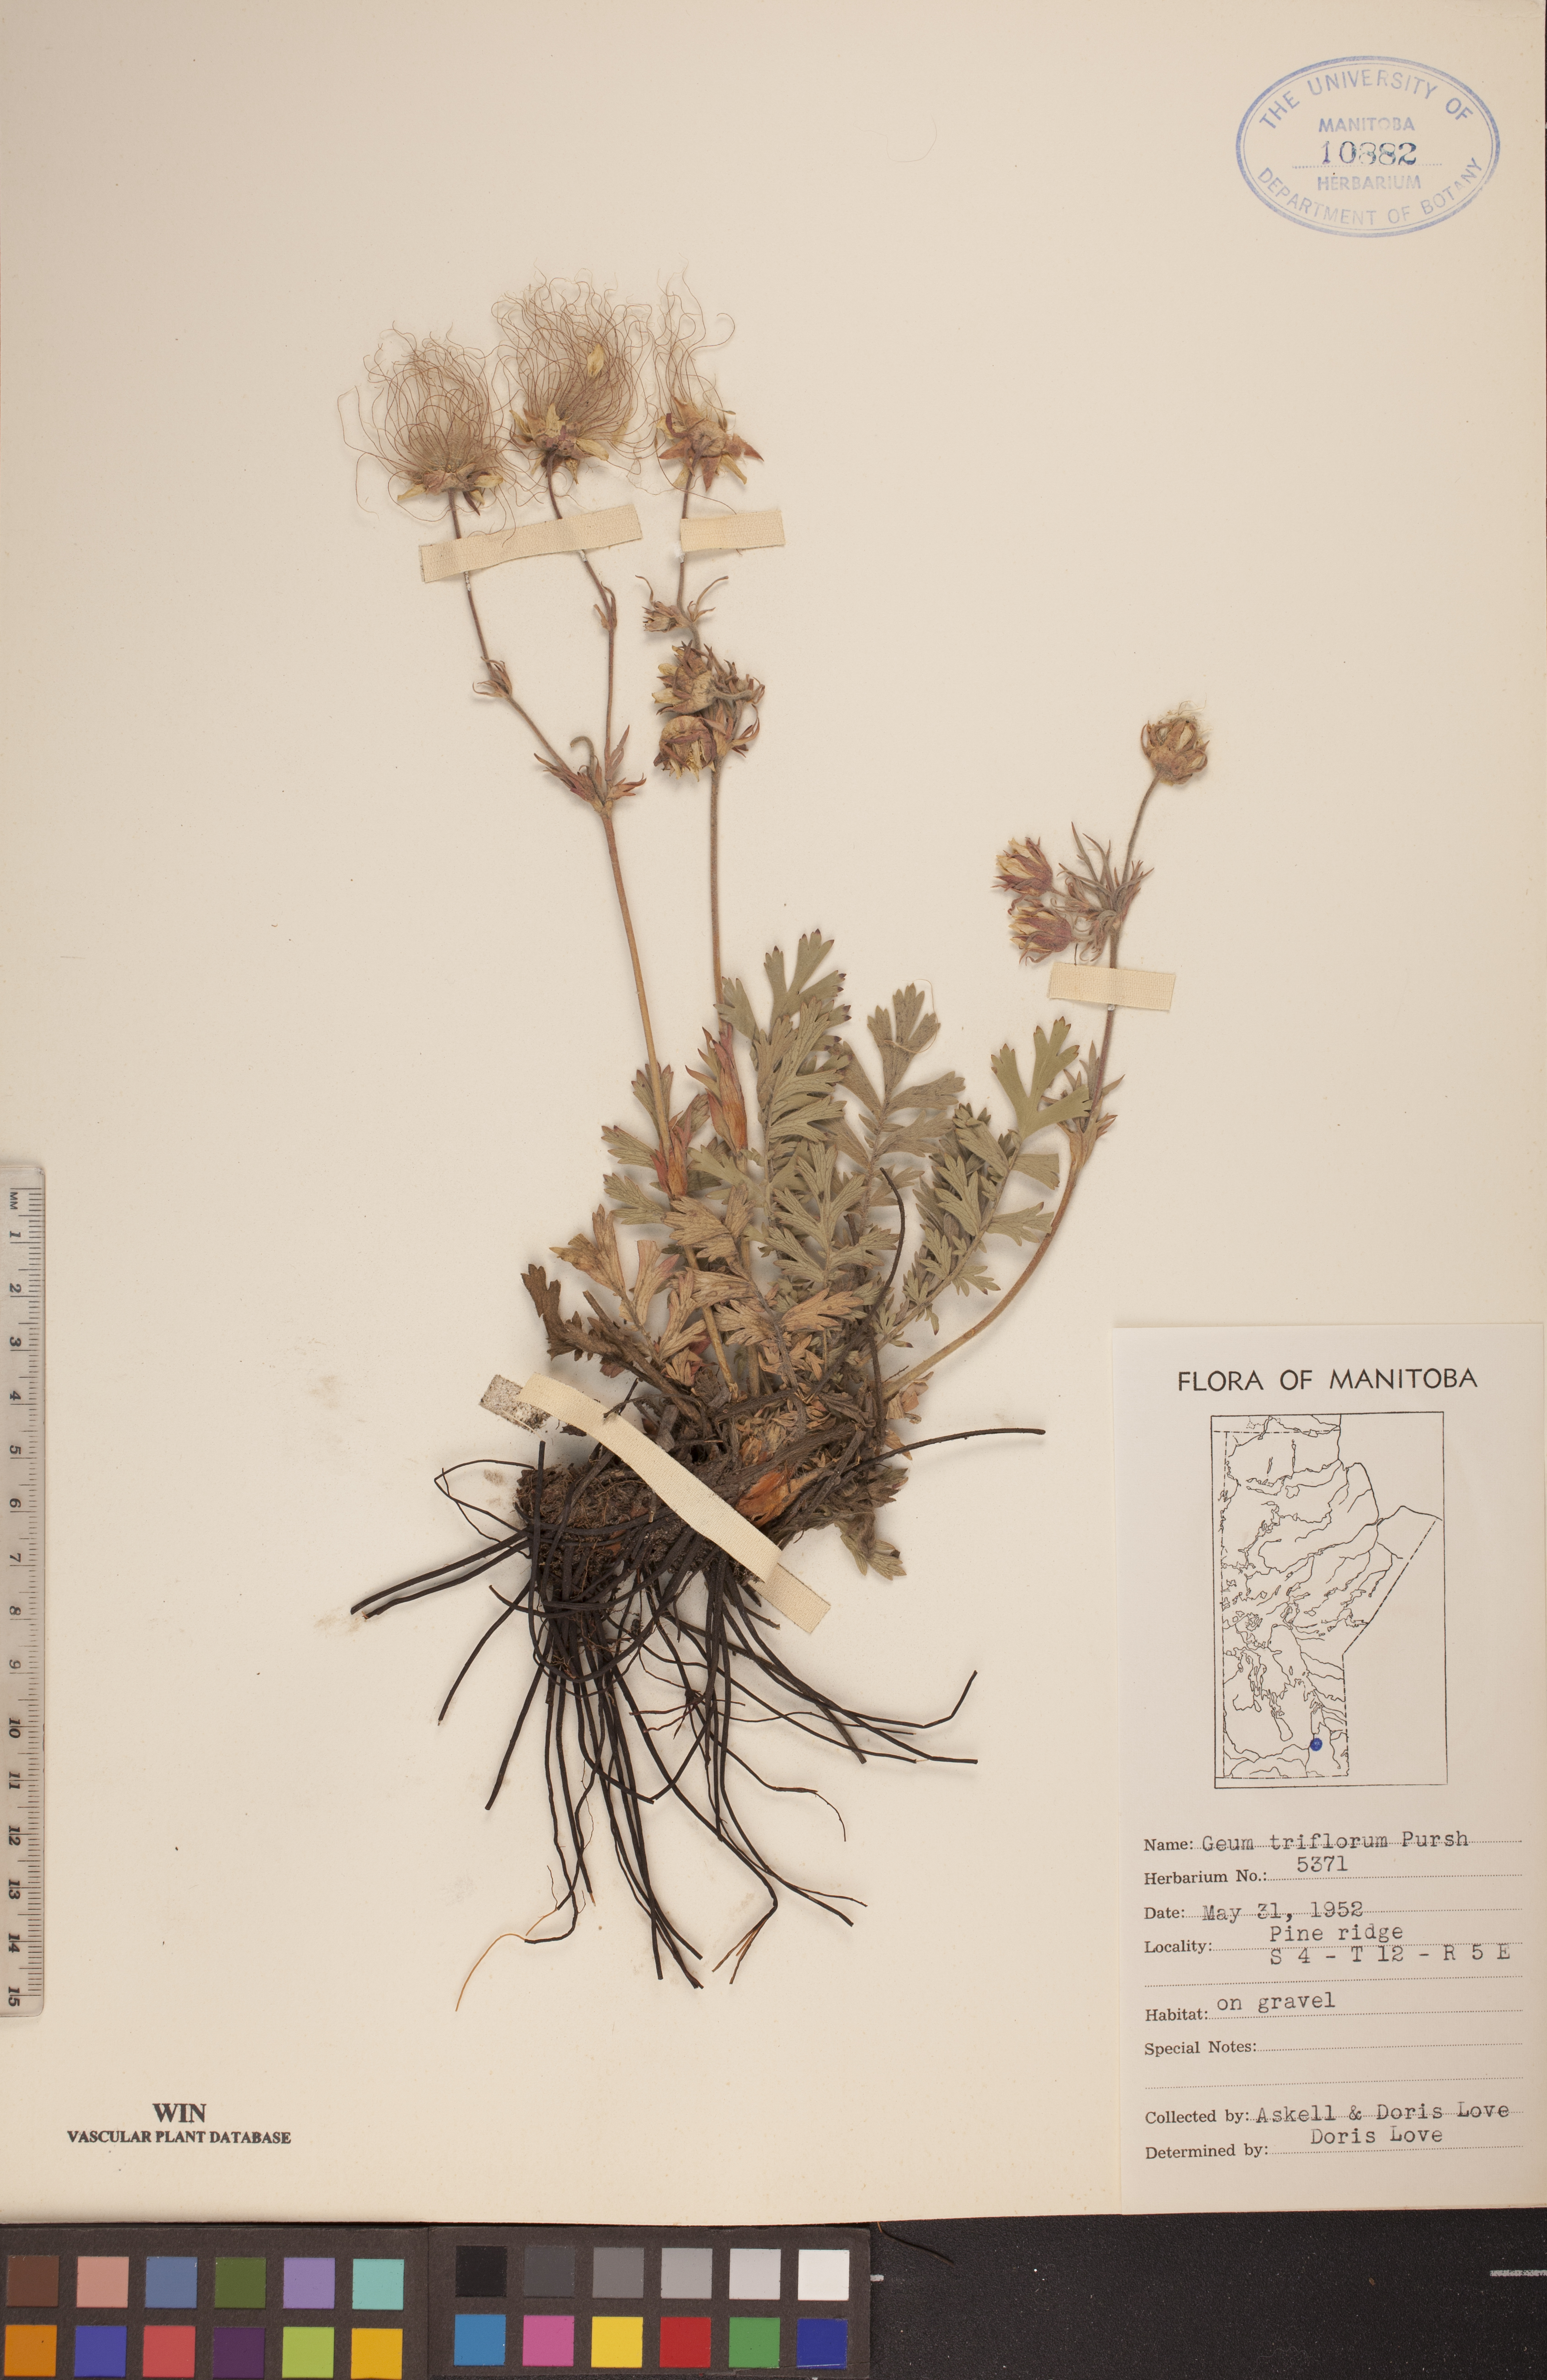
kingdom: Plantae
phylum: Tracheophyta
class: Magnoliopsida
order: Rosales
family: Rosaceae
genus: Geum
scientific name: Geum triflorum
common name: Old man's whiskers
